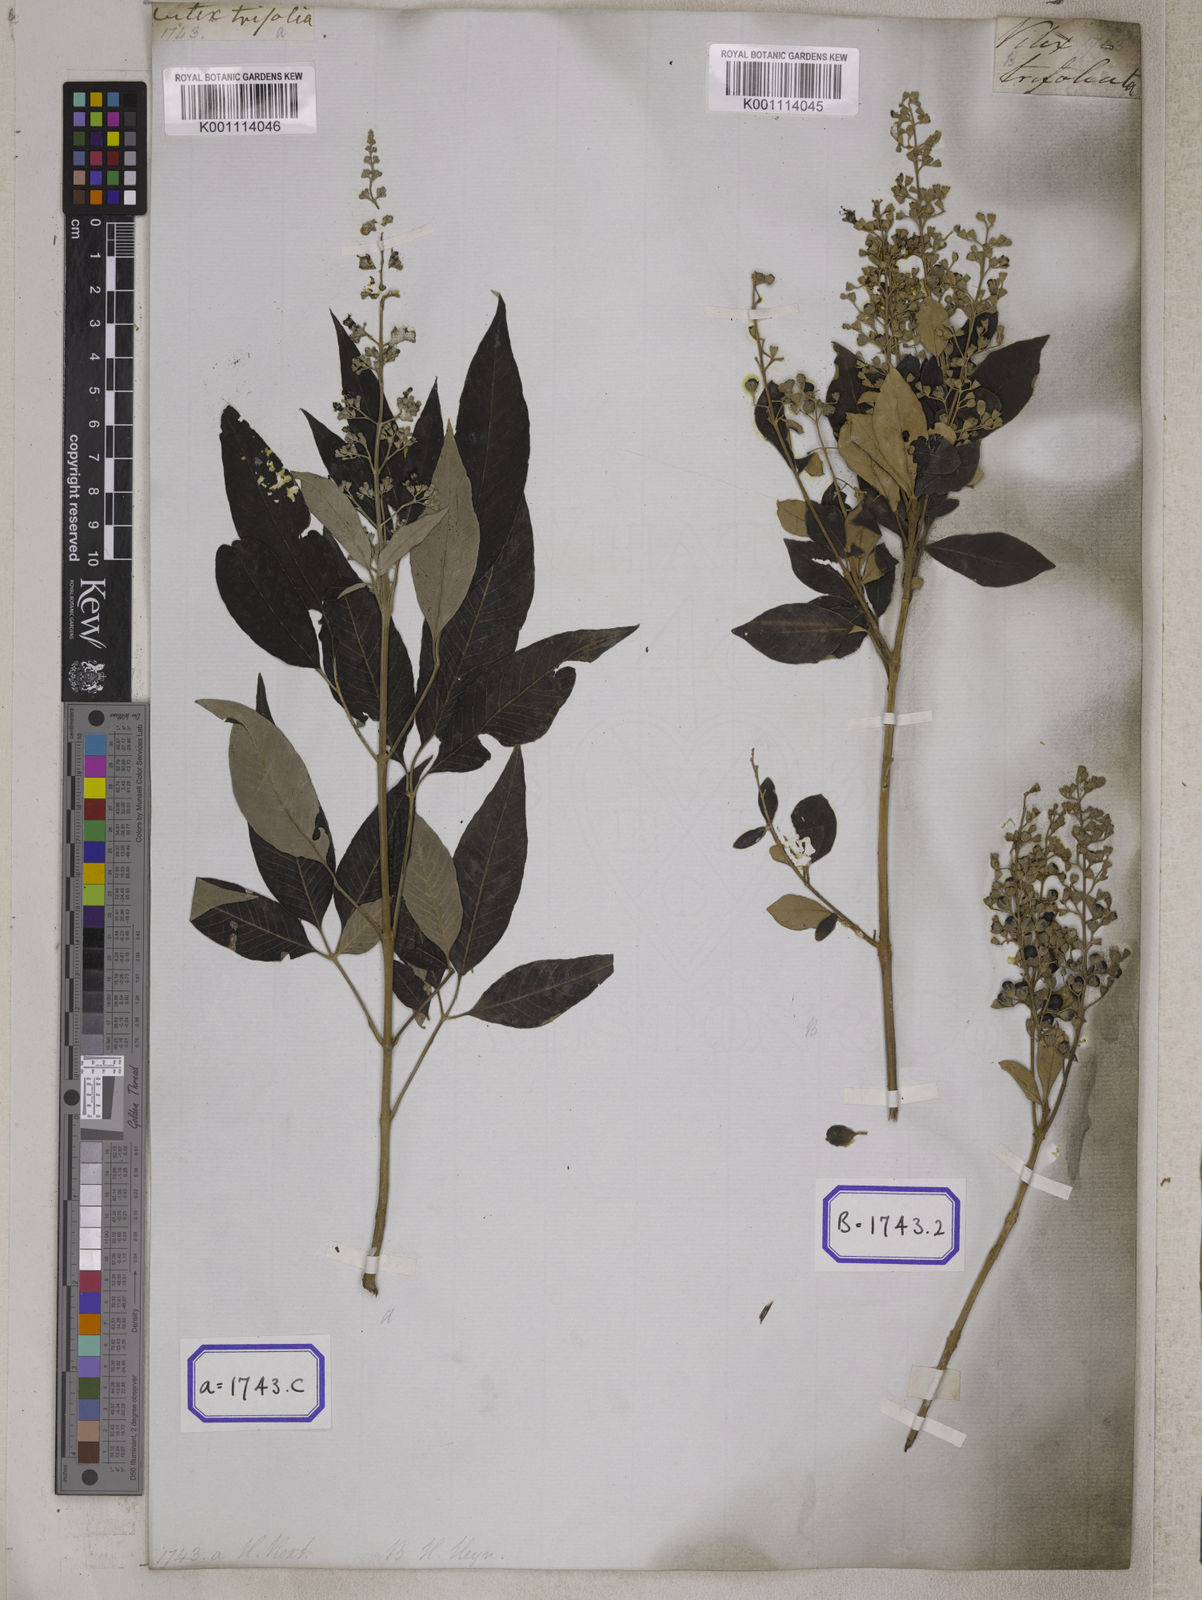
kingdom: Plantae
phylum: Tracheophyta
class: Magnoliopsida
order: Lamiales
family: Lamiaceae
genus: Vitex
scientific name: Vitex trifolia
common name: Simpleleaf chastetree
